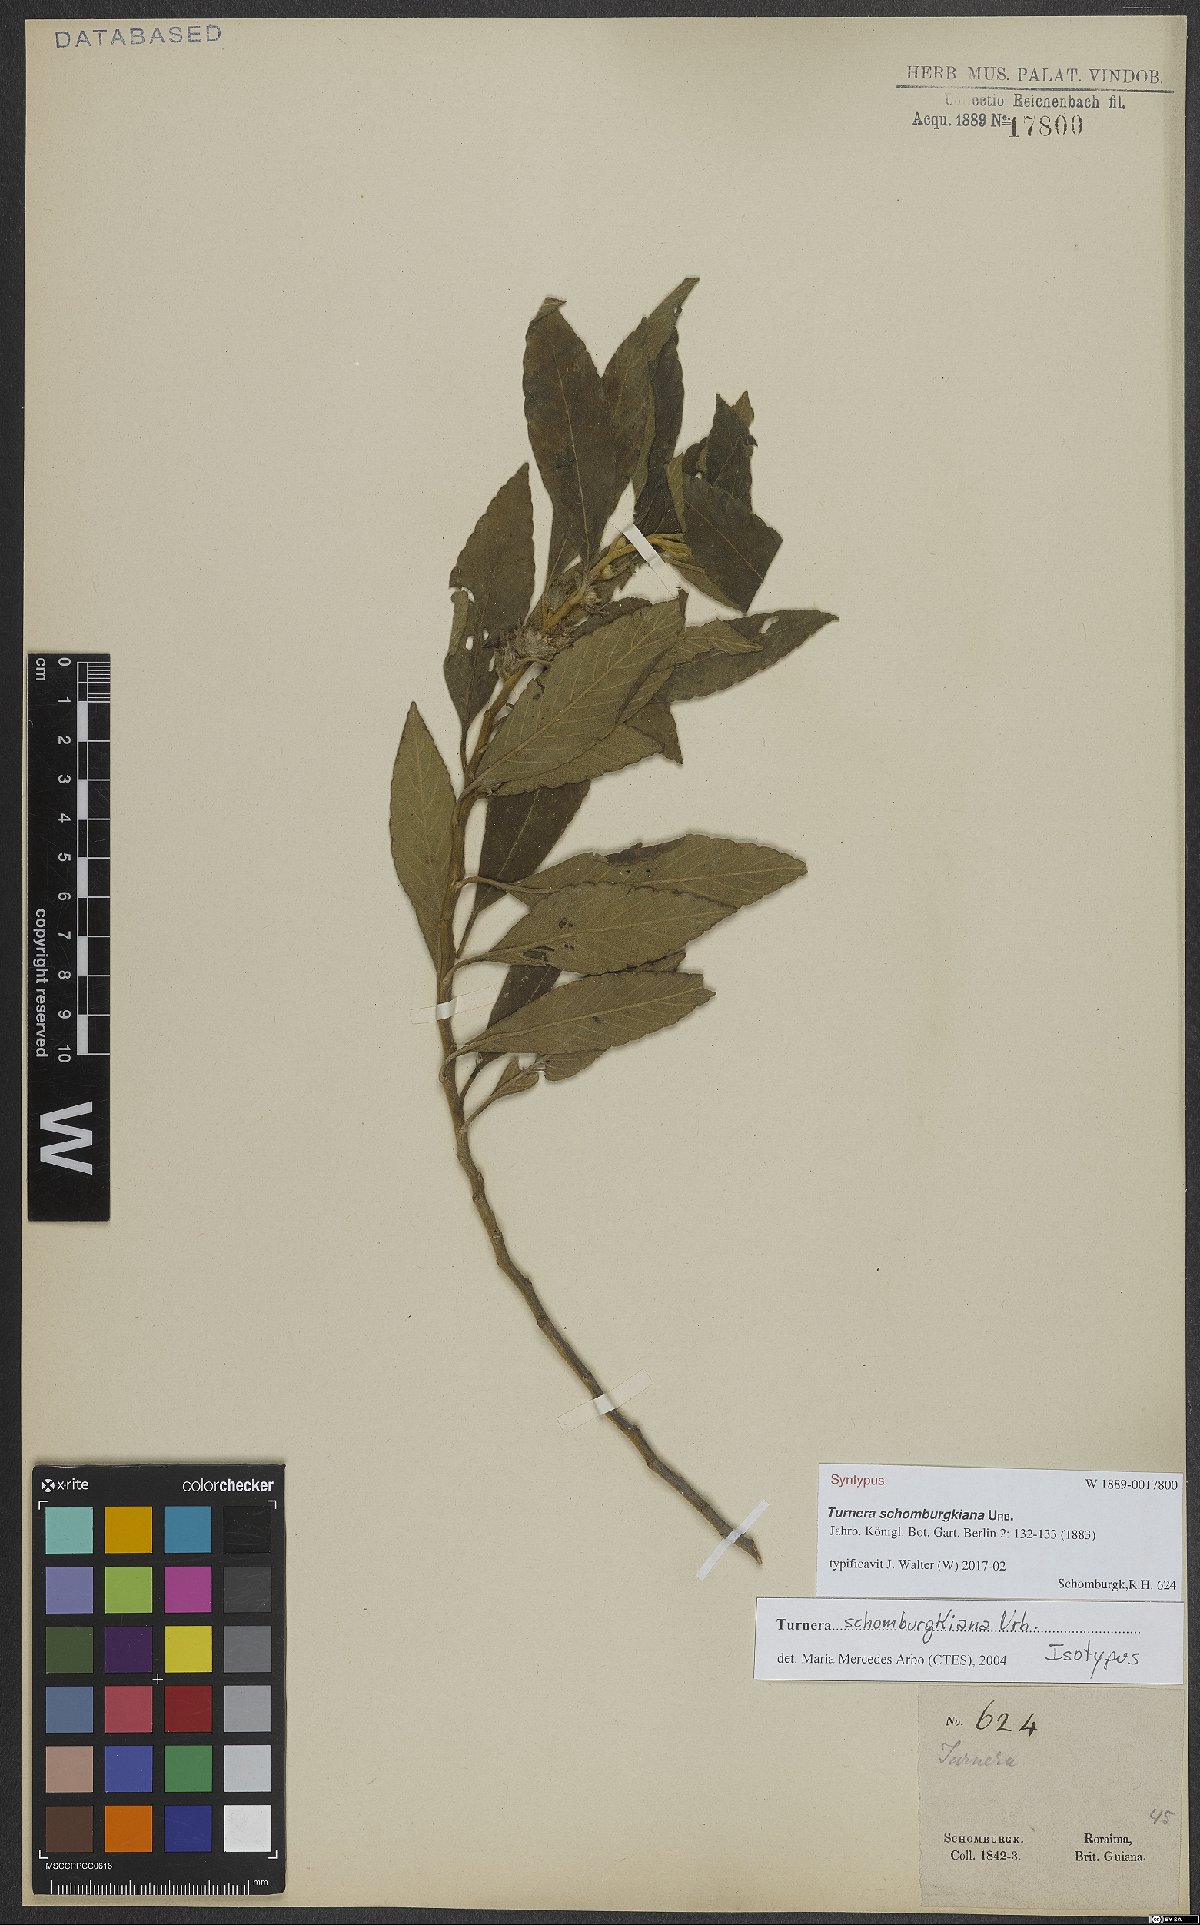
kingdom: Plantae
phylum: Tracheophyta
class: Magnoliopsida
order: Malpighiales
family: Turneraceae
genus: Oxossia
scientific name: Oxossia schomburgkiana
